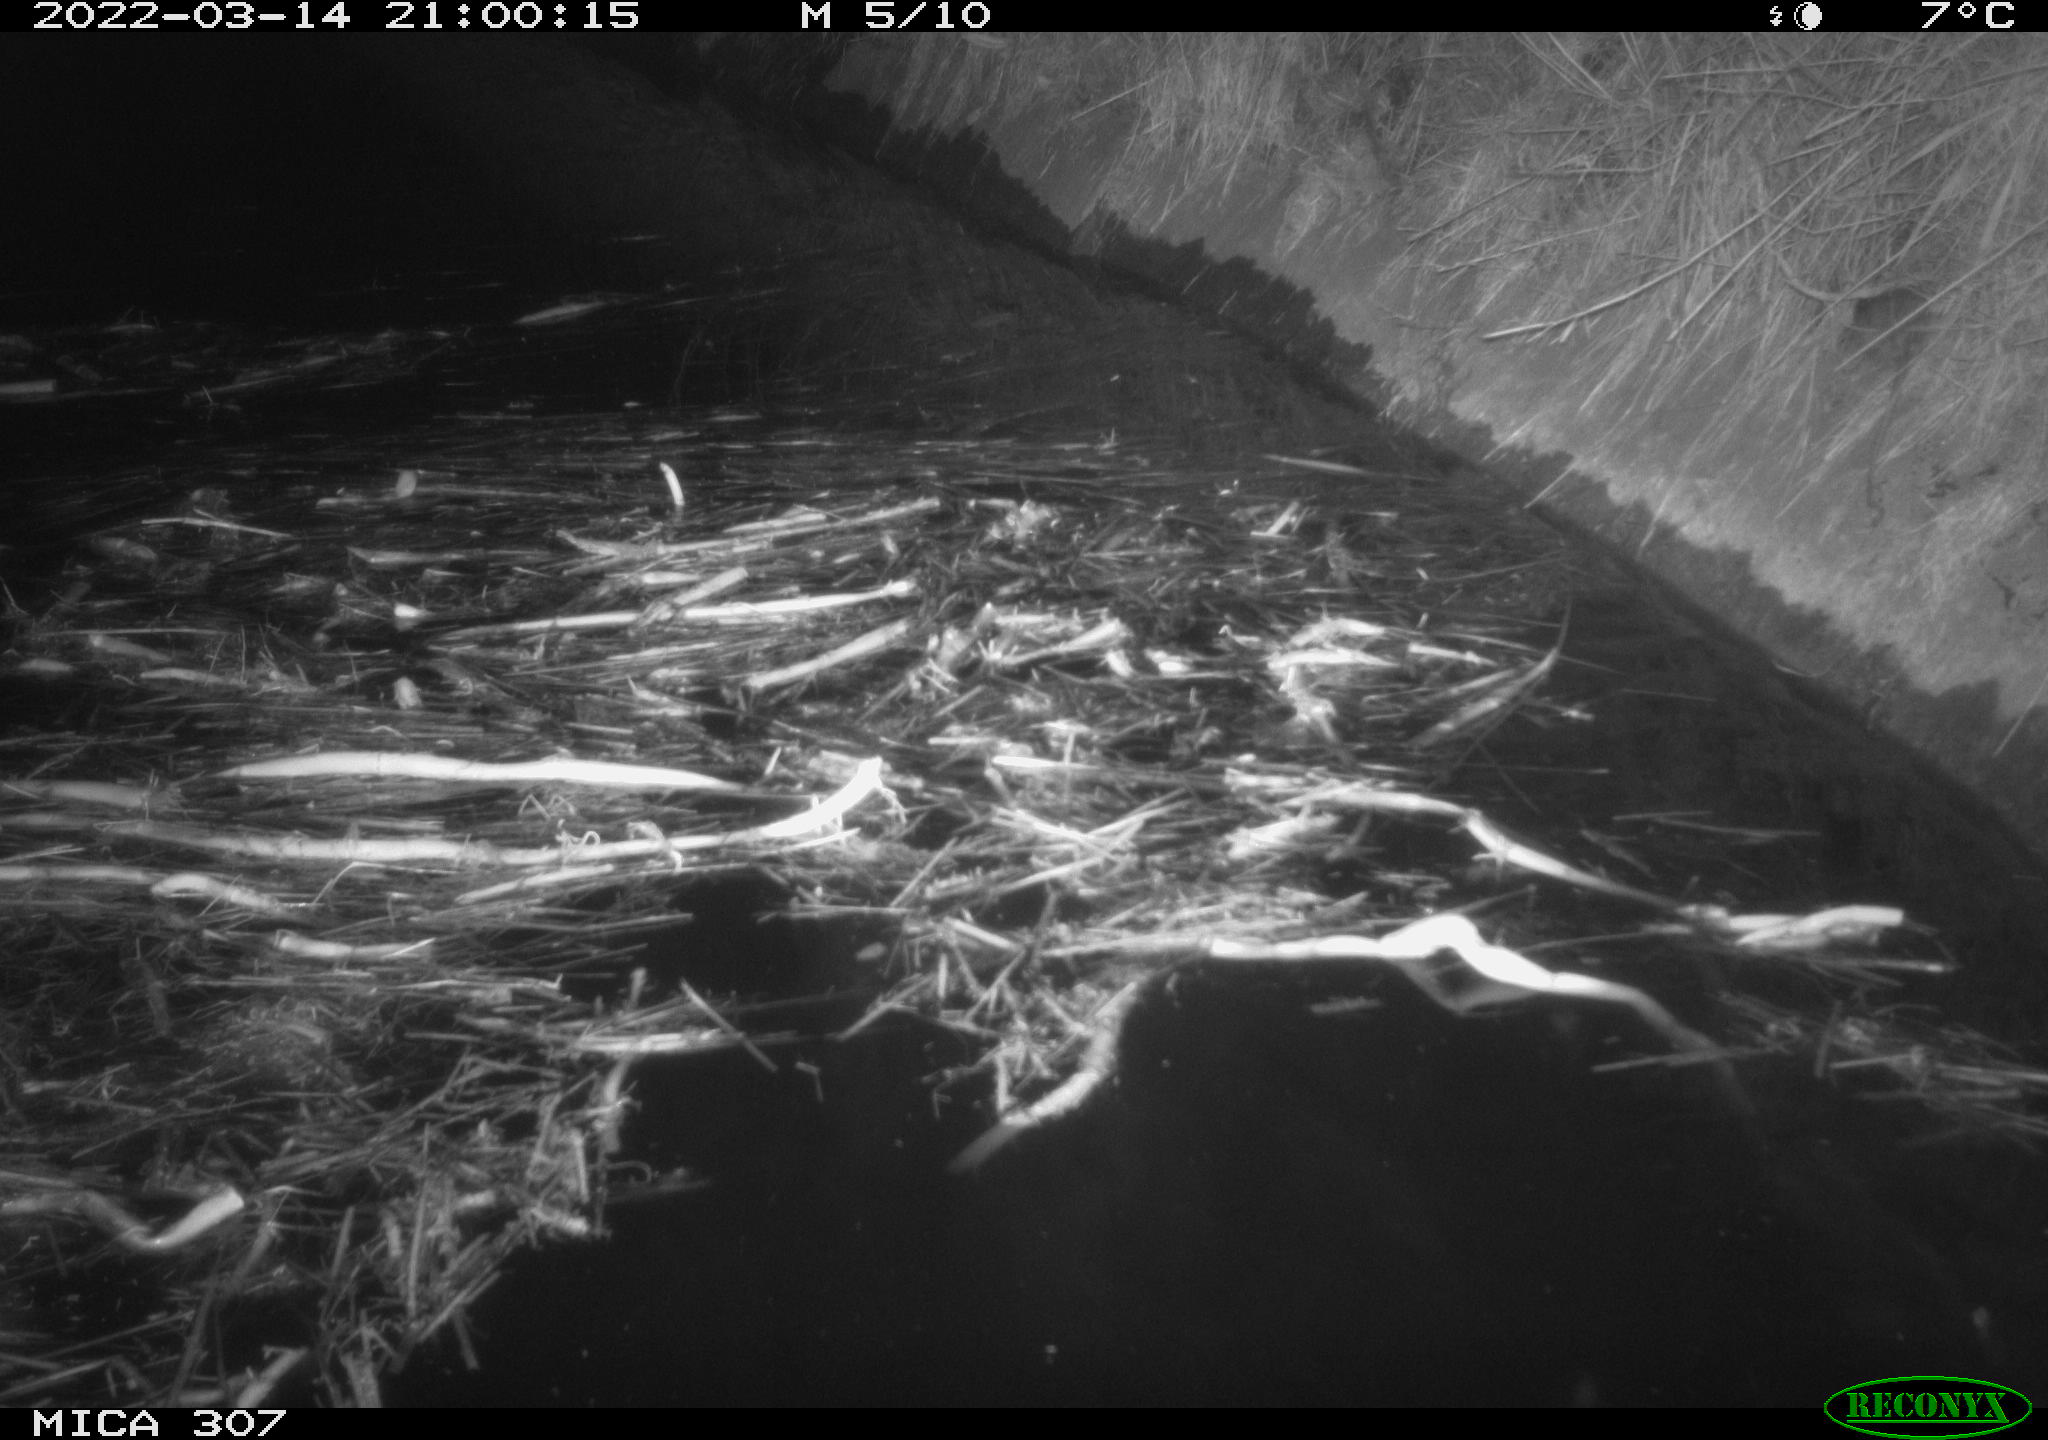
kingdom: Animalia
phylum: Chordata
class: Mammalia
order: Rodentia
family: Muridae
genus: Rattus
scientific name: Rattus norvegicus
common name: Brown rat
